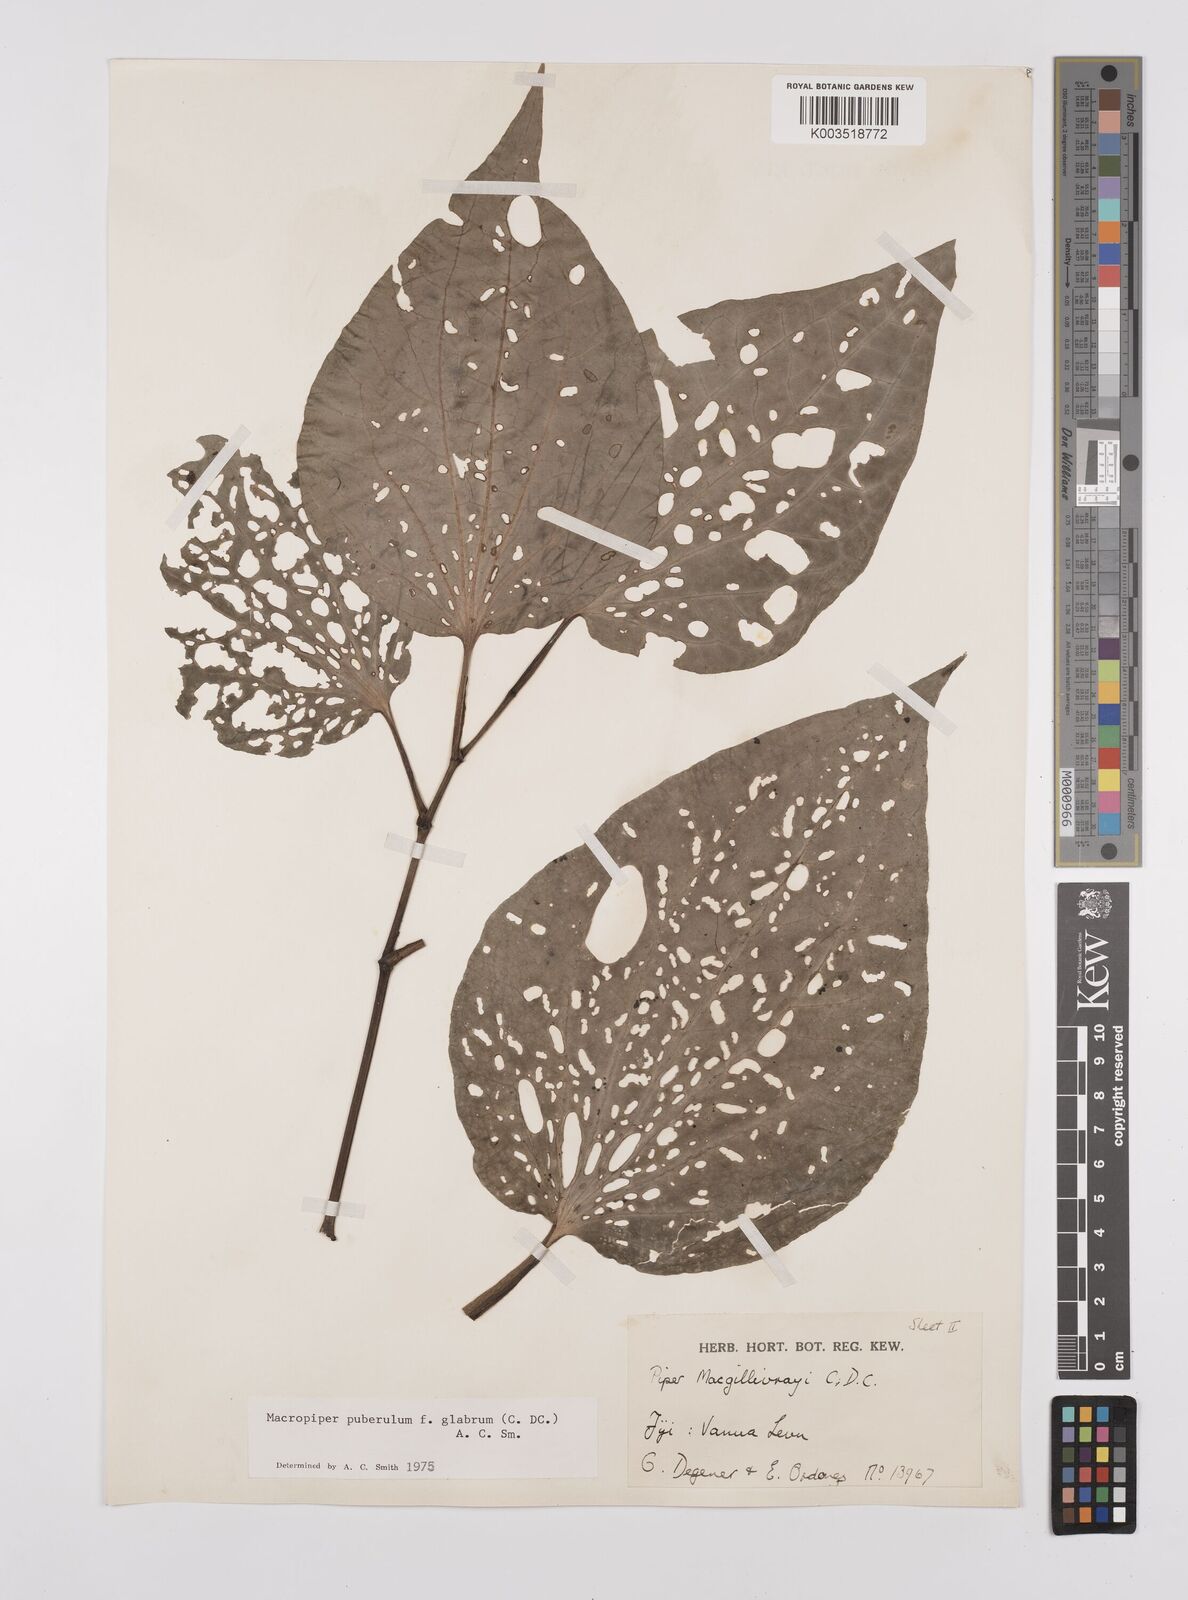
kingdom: Plantae
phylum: Tracheophyta
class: Magnoliopsida
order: Piperales
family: Piperaceae
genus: Macropiper
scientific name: Macropiper puberulum
